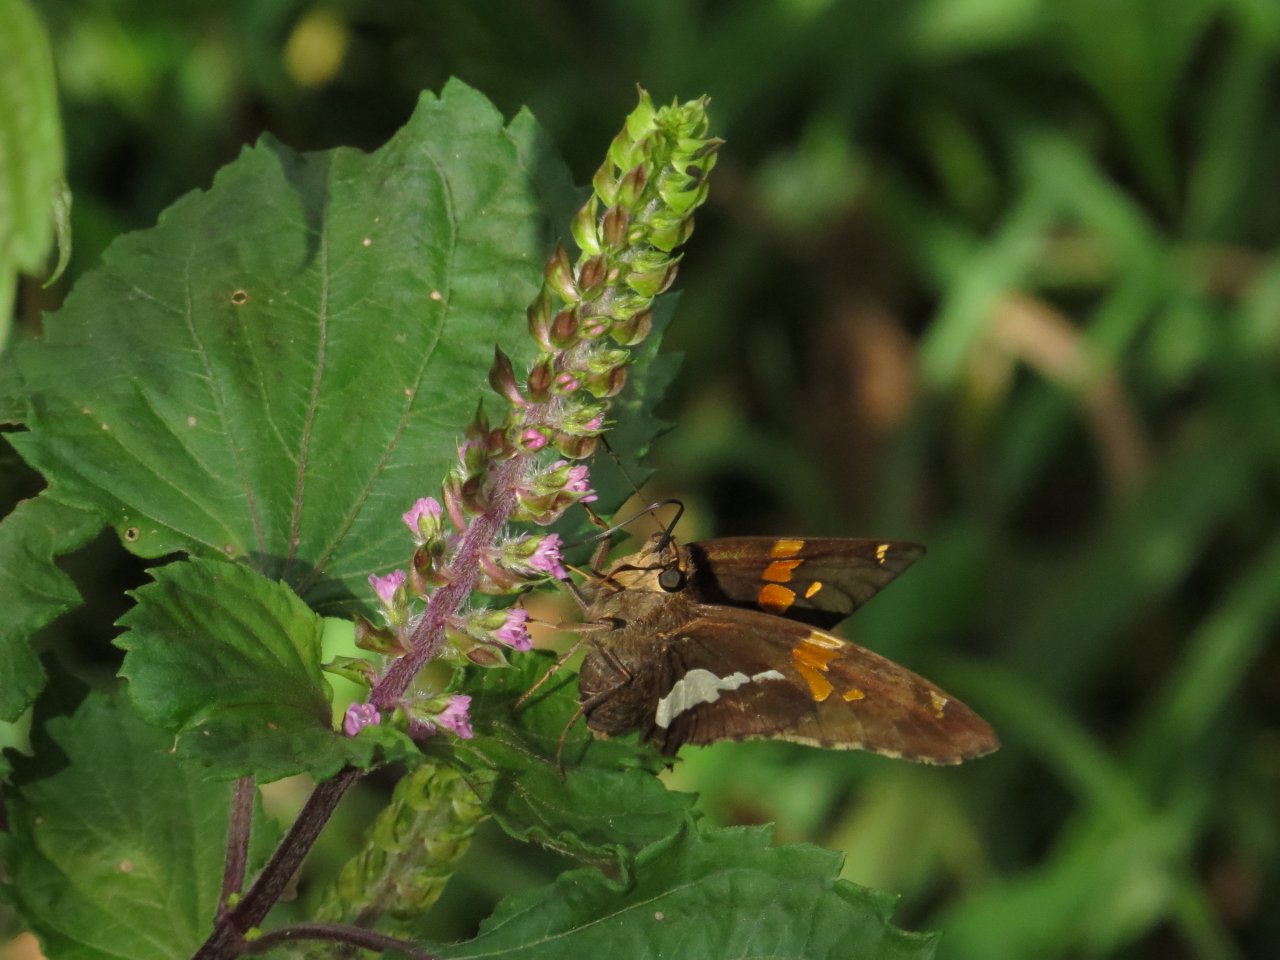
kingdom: Animalia
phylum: Arthropoda
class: Insecta
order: Lepidoptera
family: Hesperiidae
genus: Epargyreus
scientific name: Epargyreus clarus
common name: Silver-spotted Skipper
